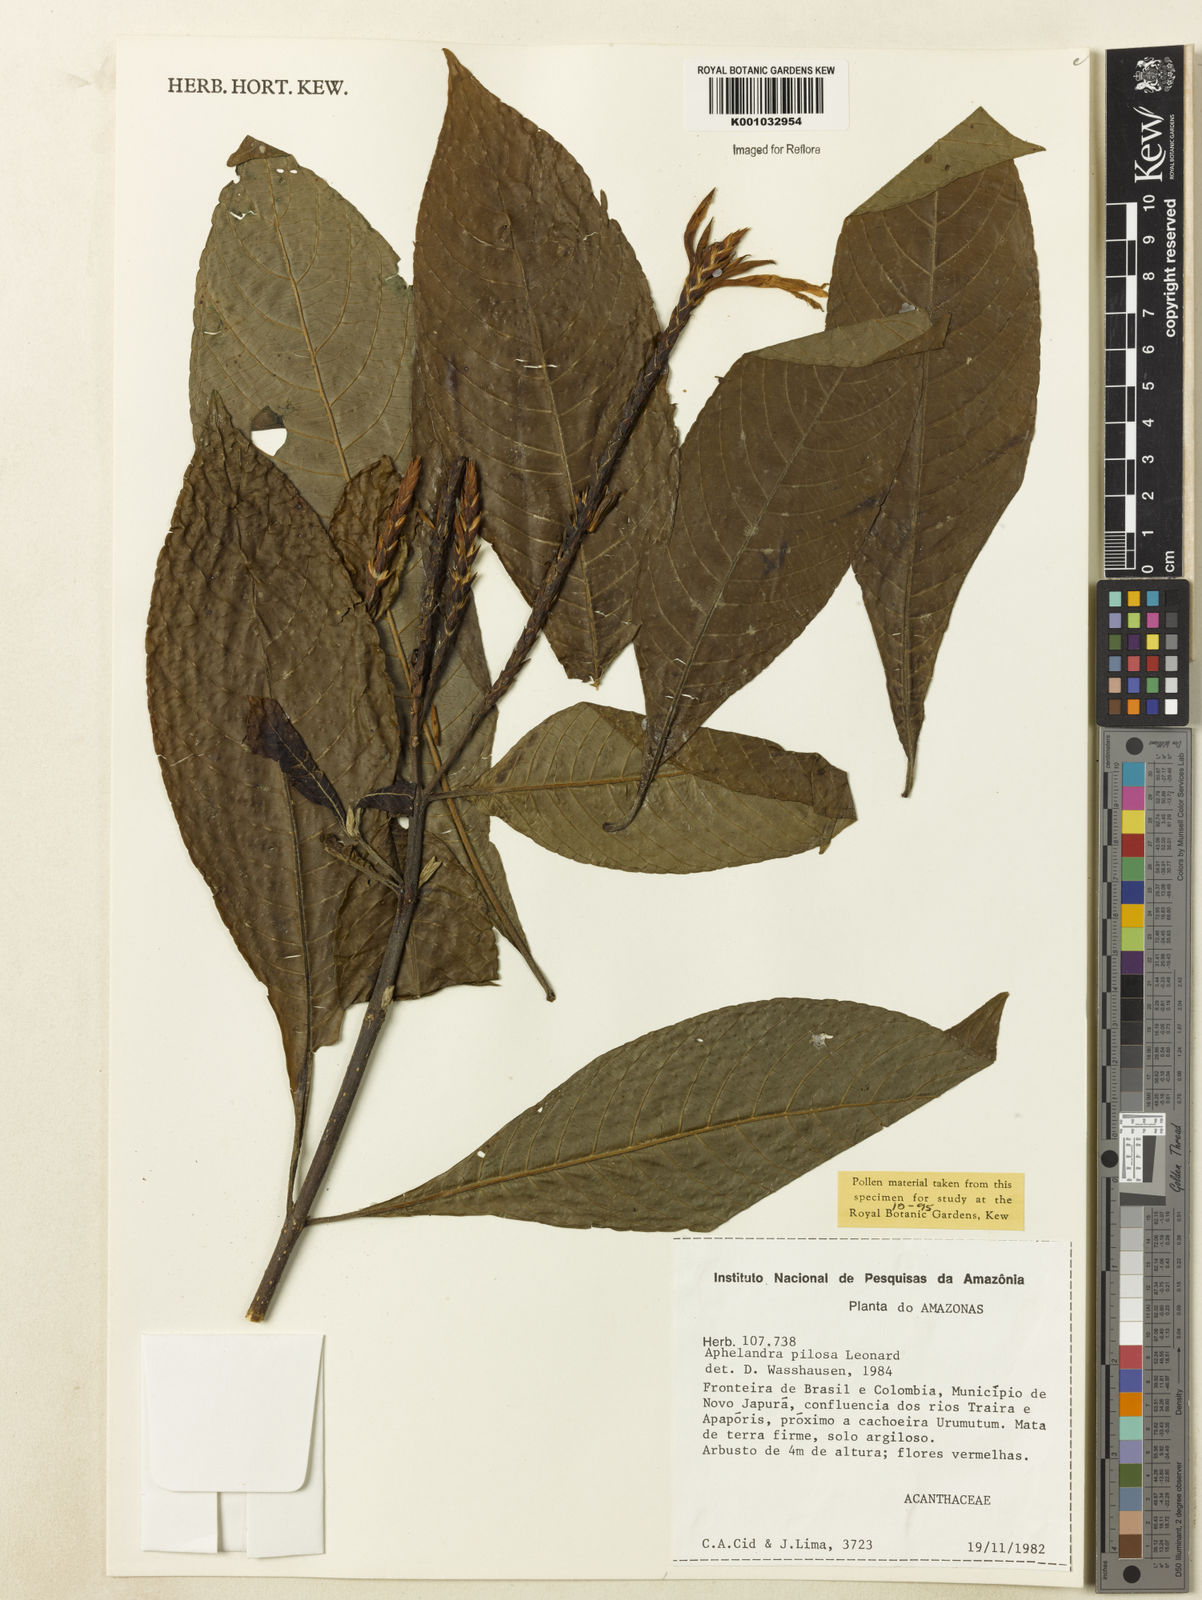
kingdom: Plantae
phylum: Tracheophyta
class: Magnoliopsida
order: Lamiales
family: Acanthaceae
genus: Aphelandra
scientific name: Aphelandra pilosa
